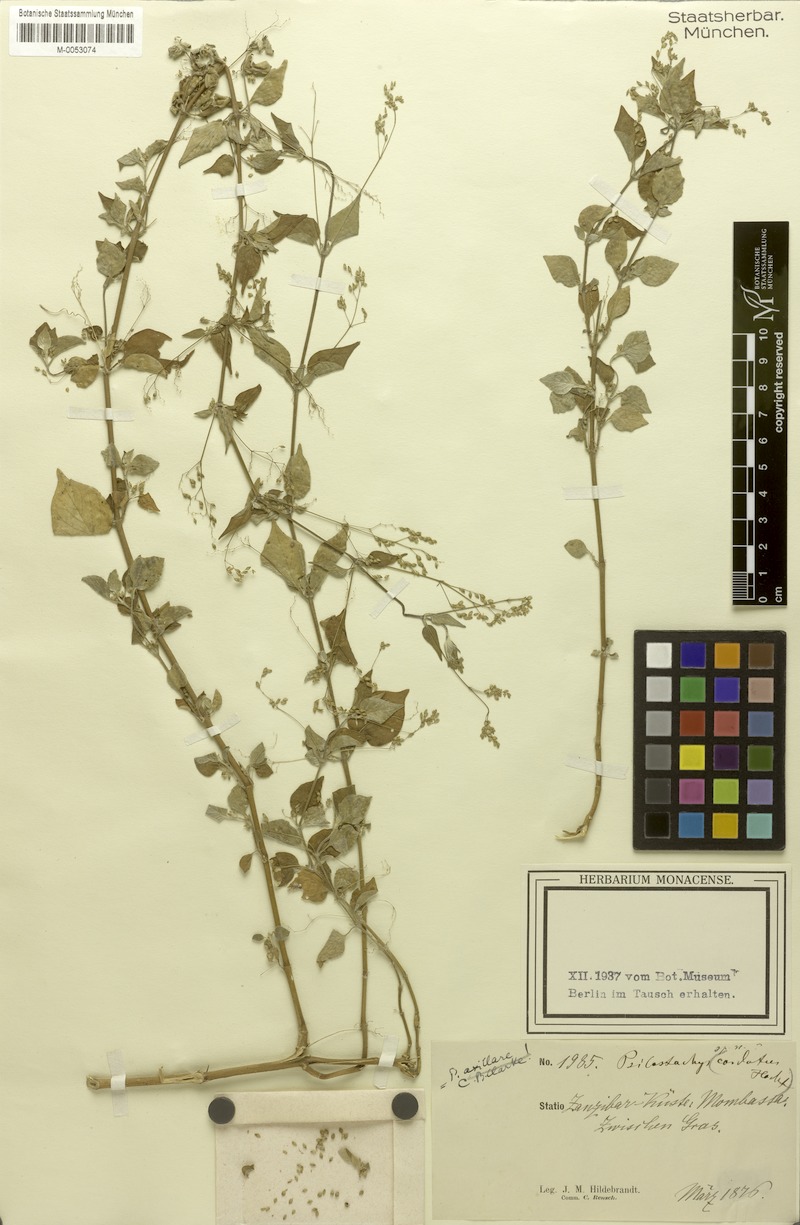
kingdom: Plantae
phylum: Tracheophyta
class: Magnoliopsida
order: Caryophyllales
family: Amaranthaceae
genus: Psilotrichum
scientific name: Psilotrichum sericeum
